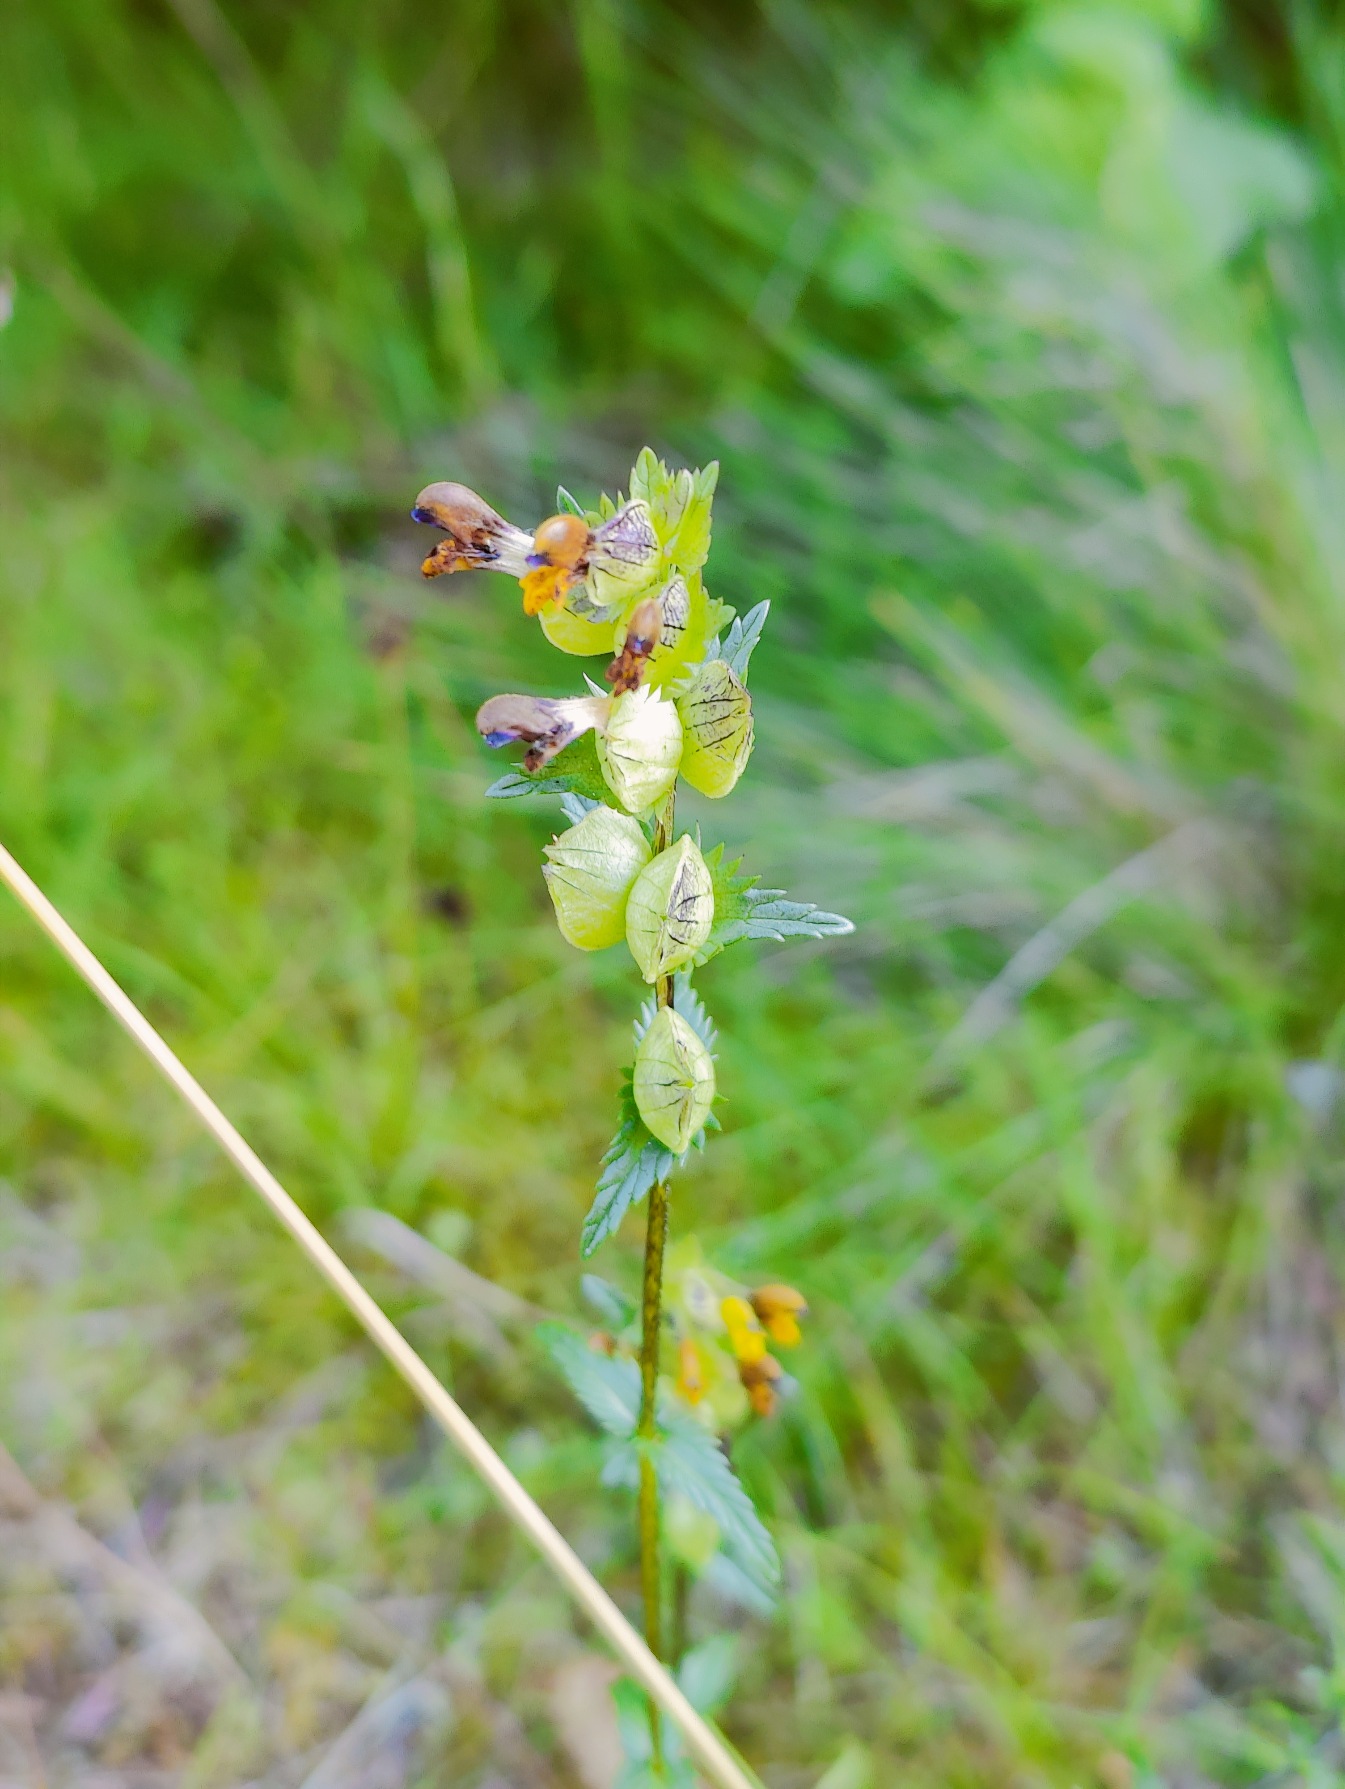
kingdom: Plantae
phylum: Tracheophyta
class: Magnoliopsida
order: Lamiales
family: Orobanchaceae
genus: Rhinanthus
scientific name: Rhinanthus minor
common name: Liden skjaller
